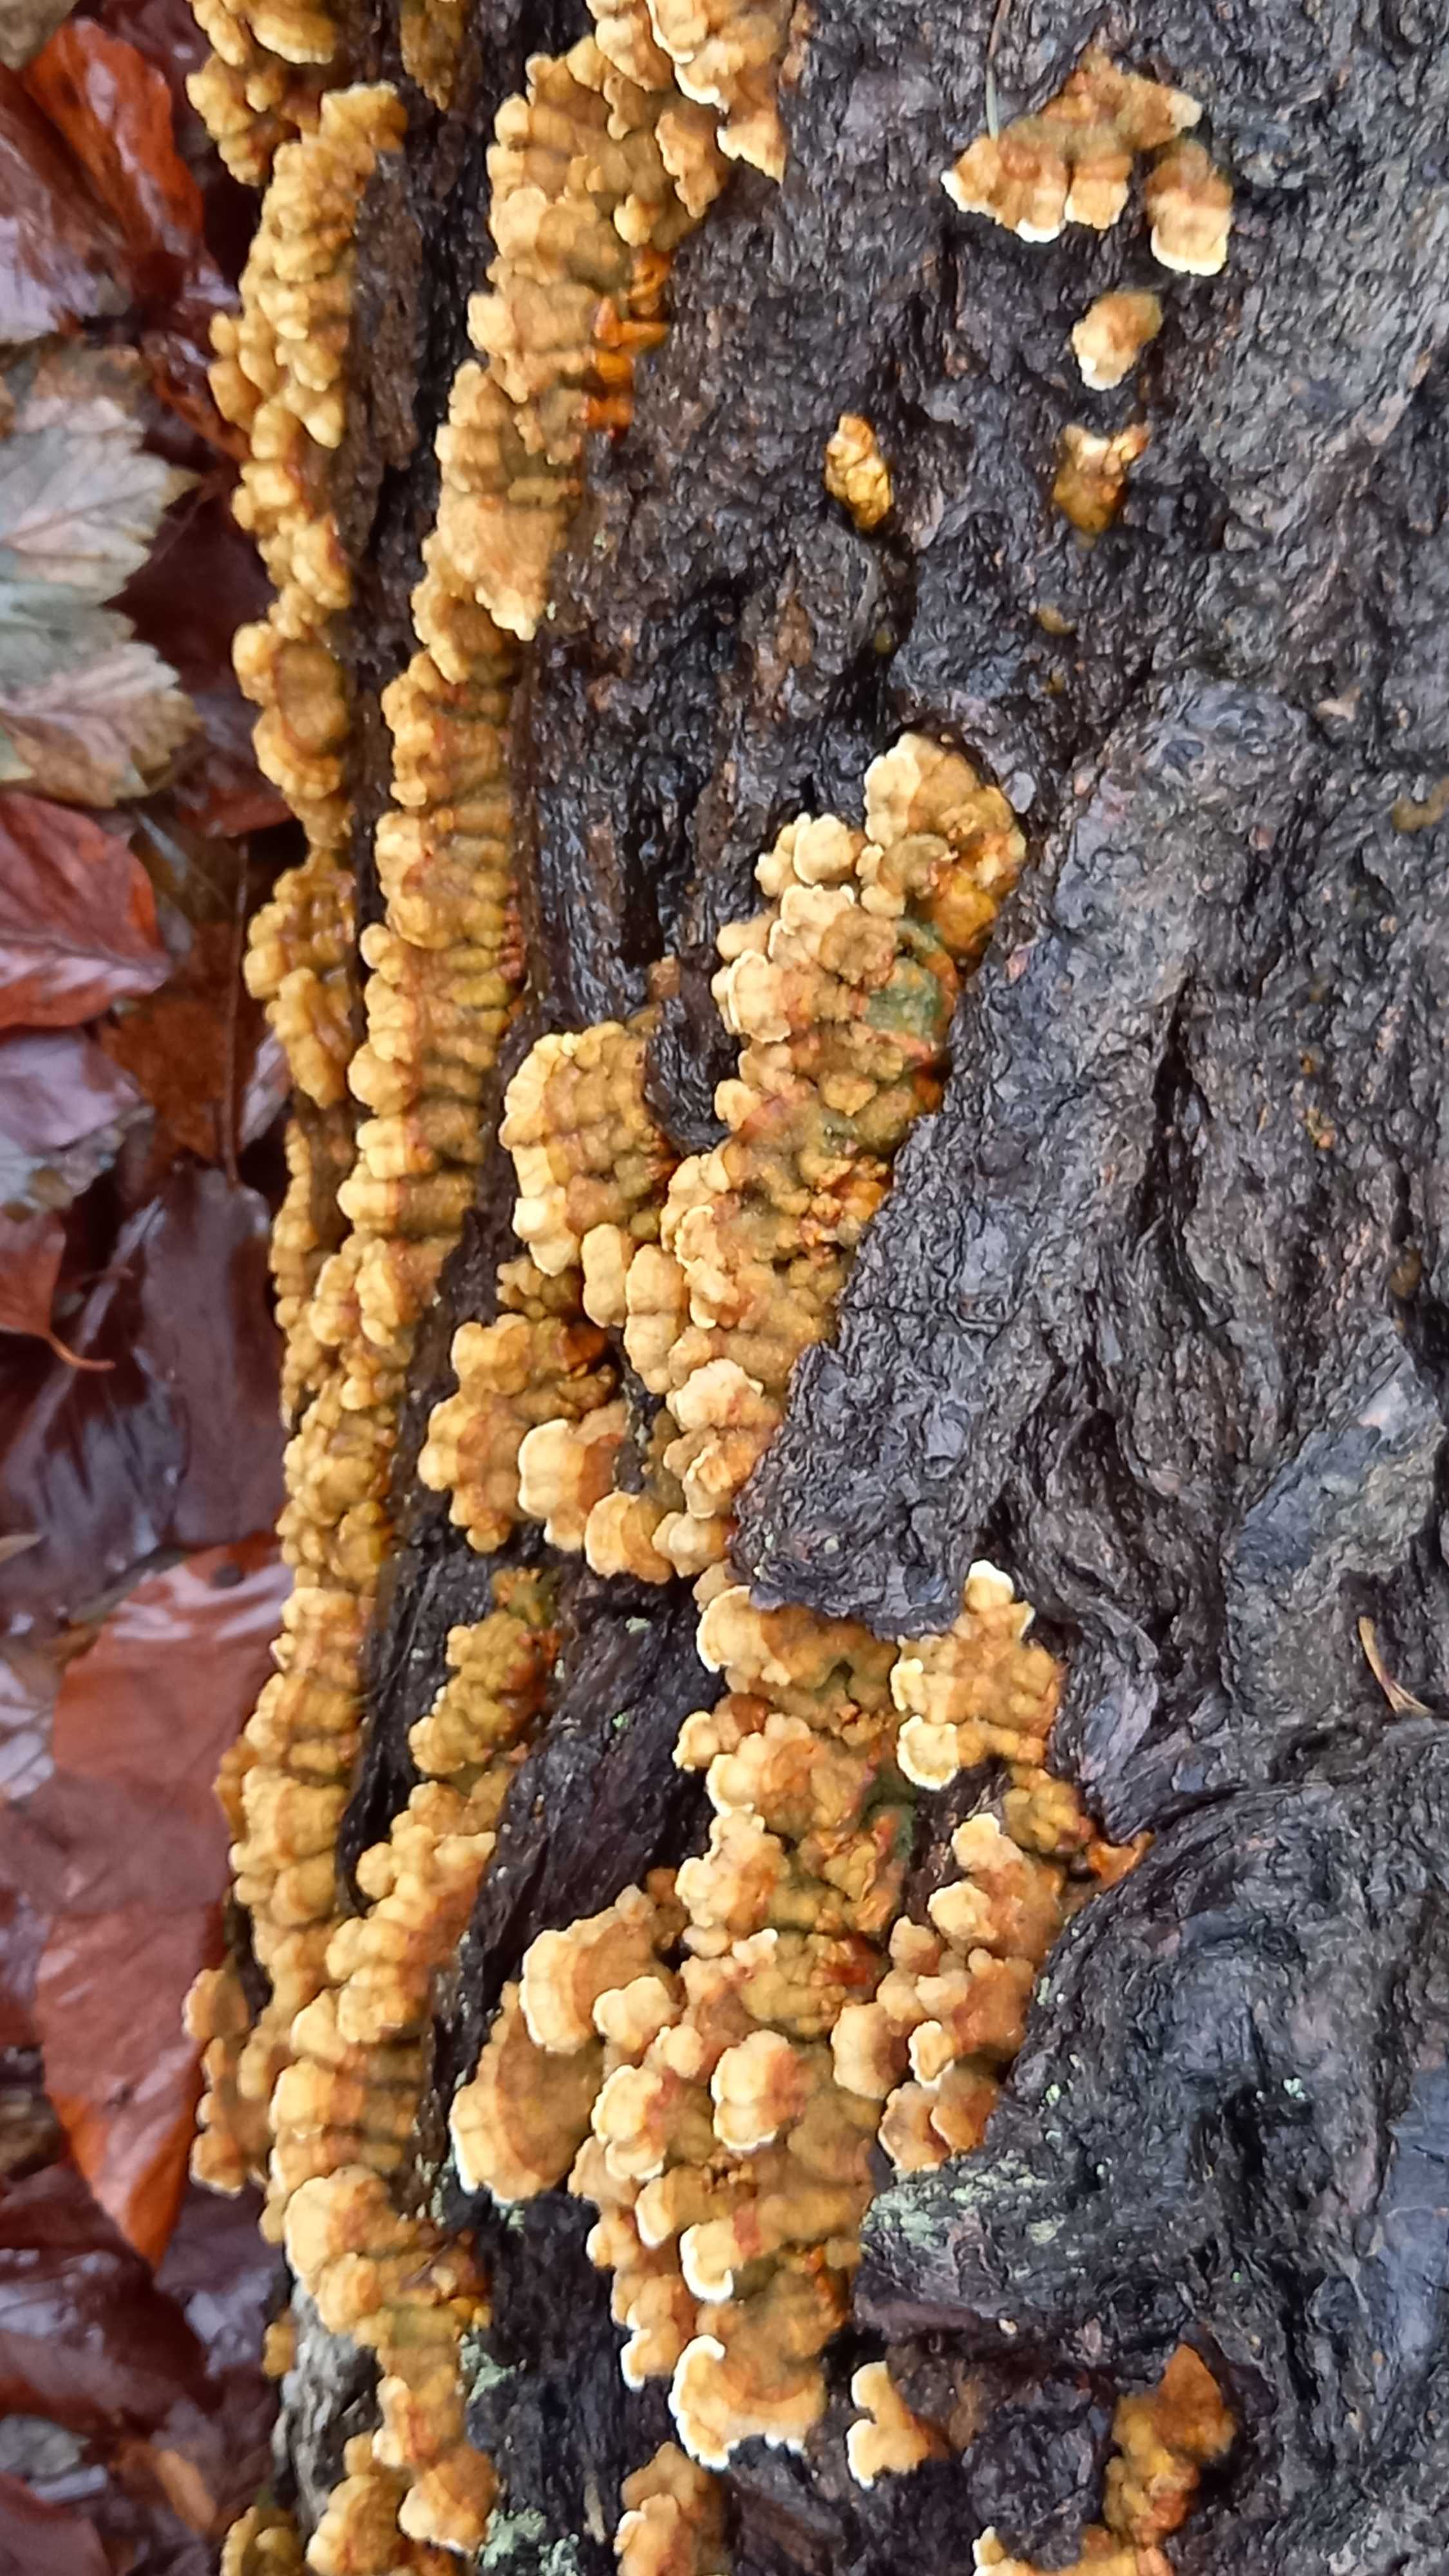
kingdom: Fungi
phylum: Basidiomycota
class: Agaricomycetes
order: Russulales
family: Stereaceae
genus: Stereum
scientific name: Stereum hirsutum
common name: håret lædersvamp
